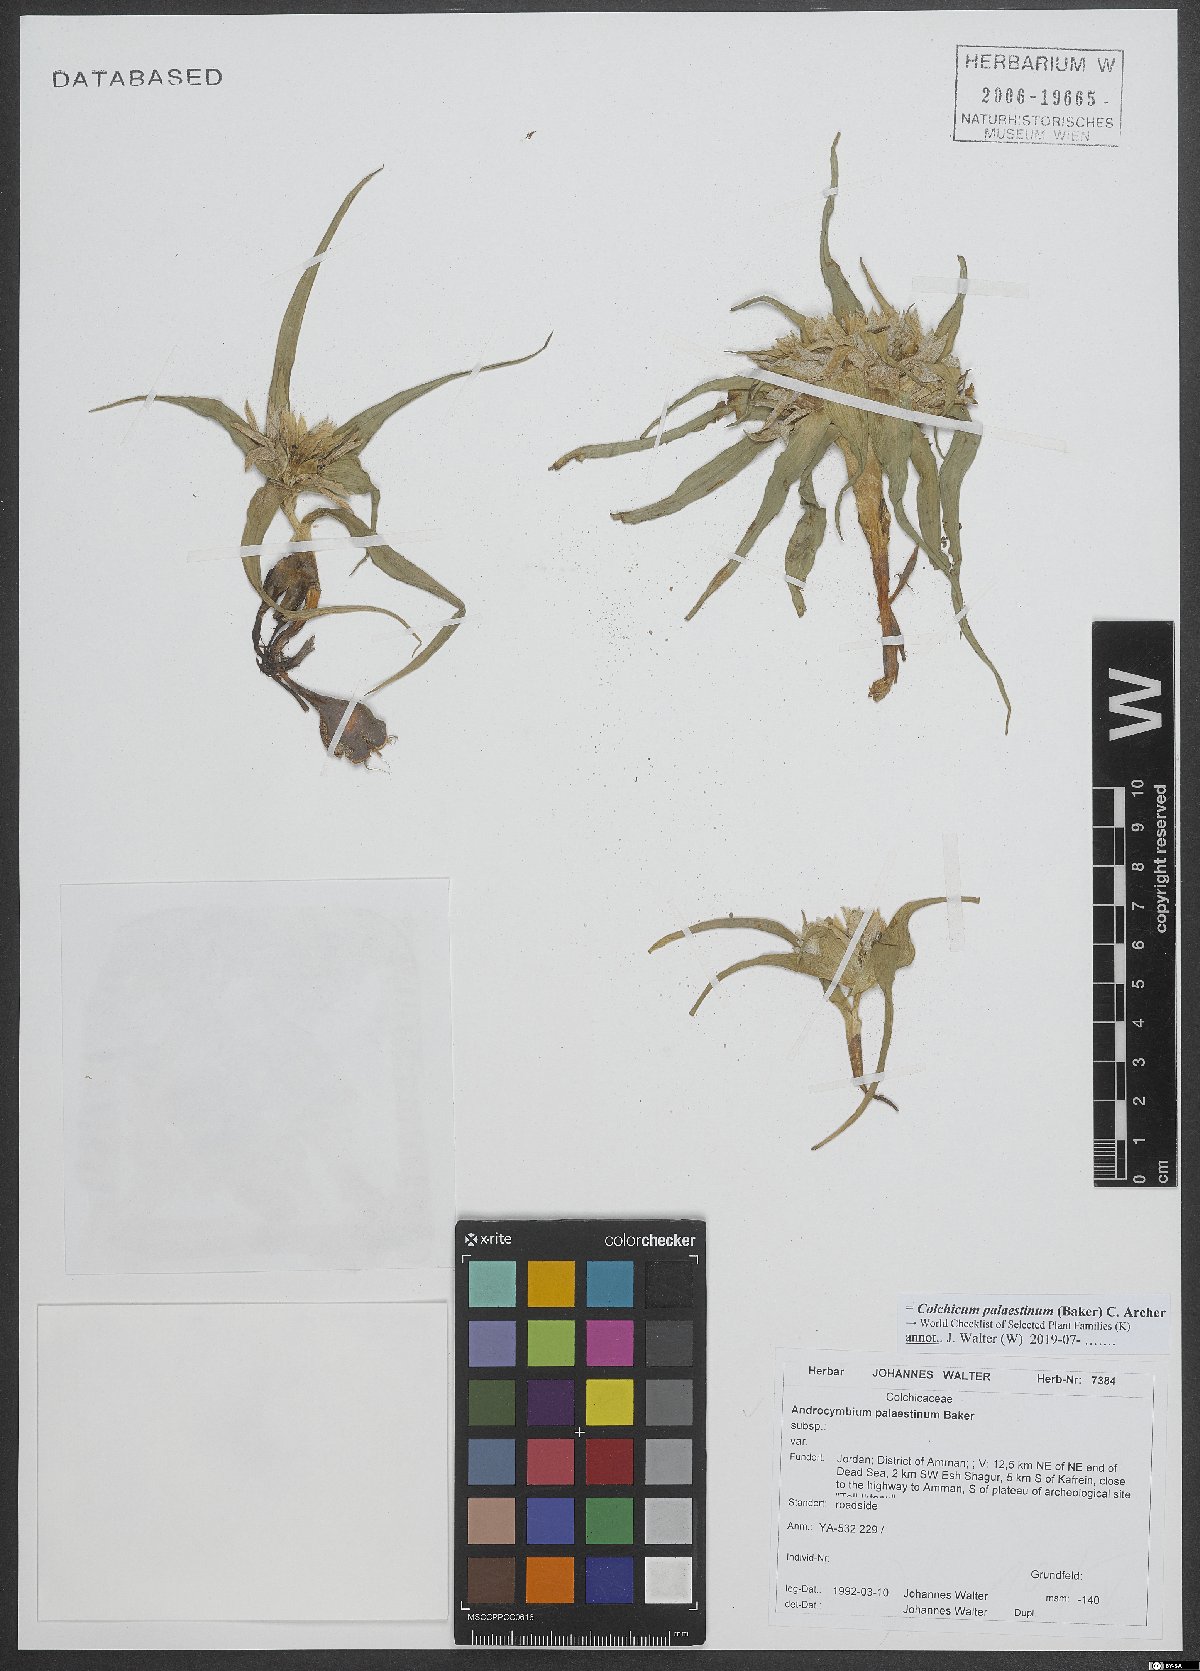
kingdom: Plantae
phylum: Tracheophyta
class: Liliopsida
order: Liliales
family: Colchicaceae
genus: Colchicum
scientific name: Colchicum palaestinum
